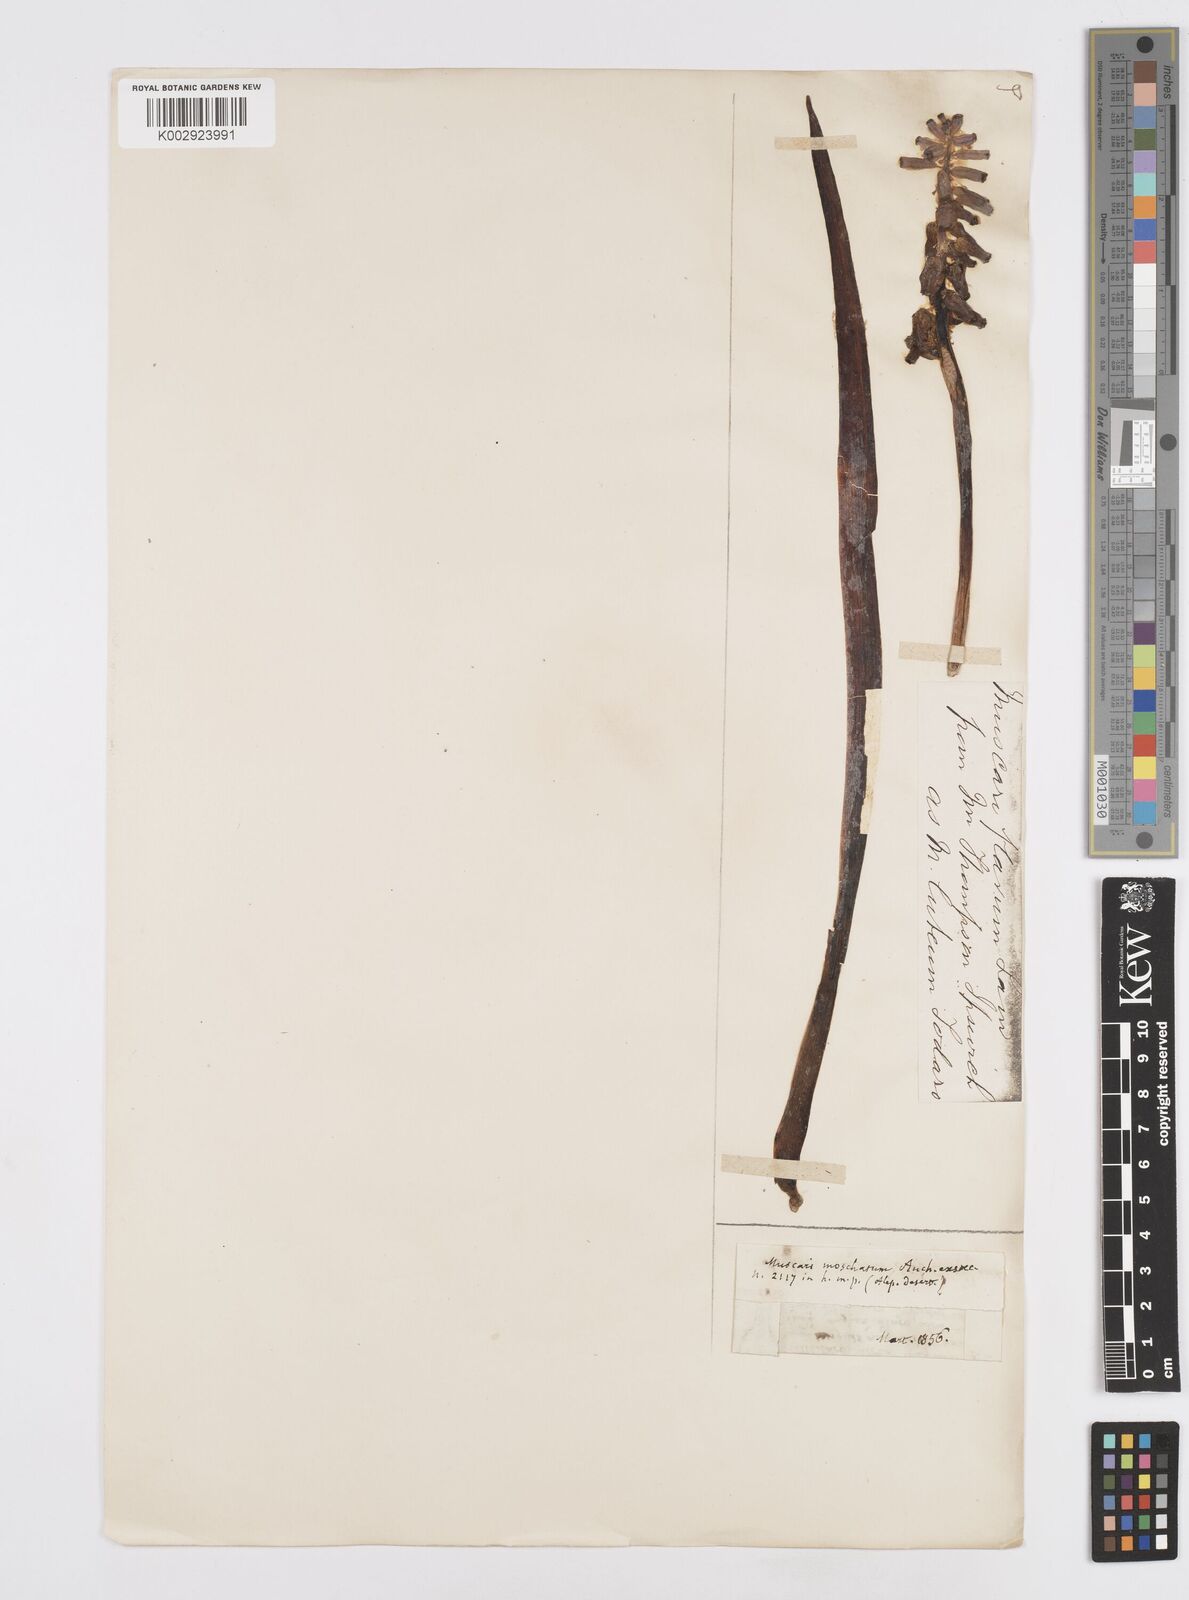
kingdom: Plantae
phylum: Tracheophyta
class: Liliopsida
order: Asparagales
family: Asparagaceae
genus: Muscarimia
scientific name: Muscarimia macrocarpa
